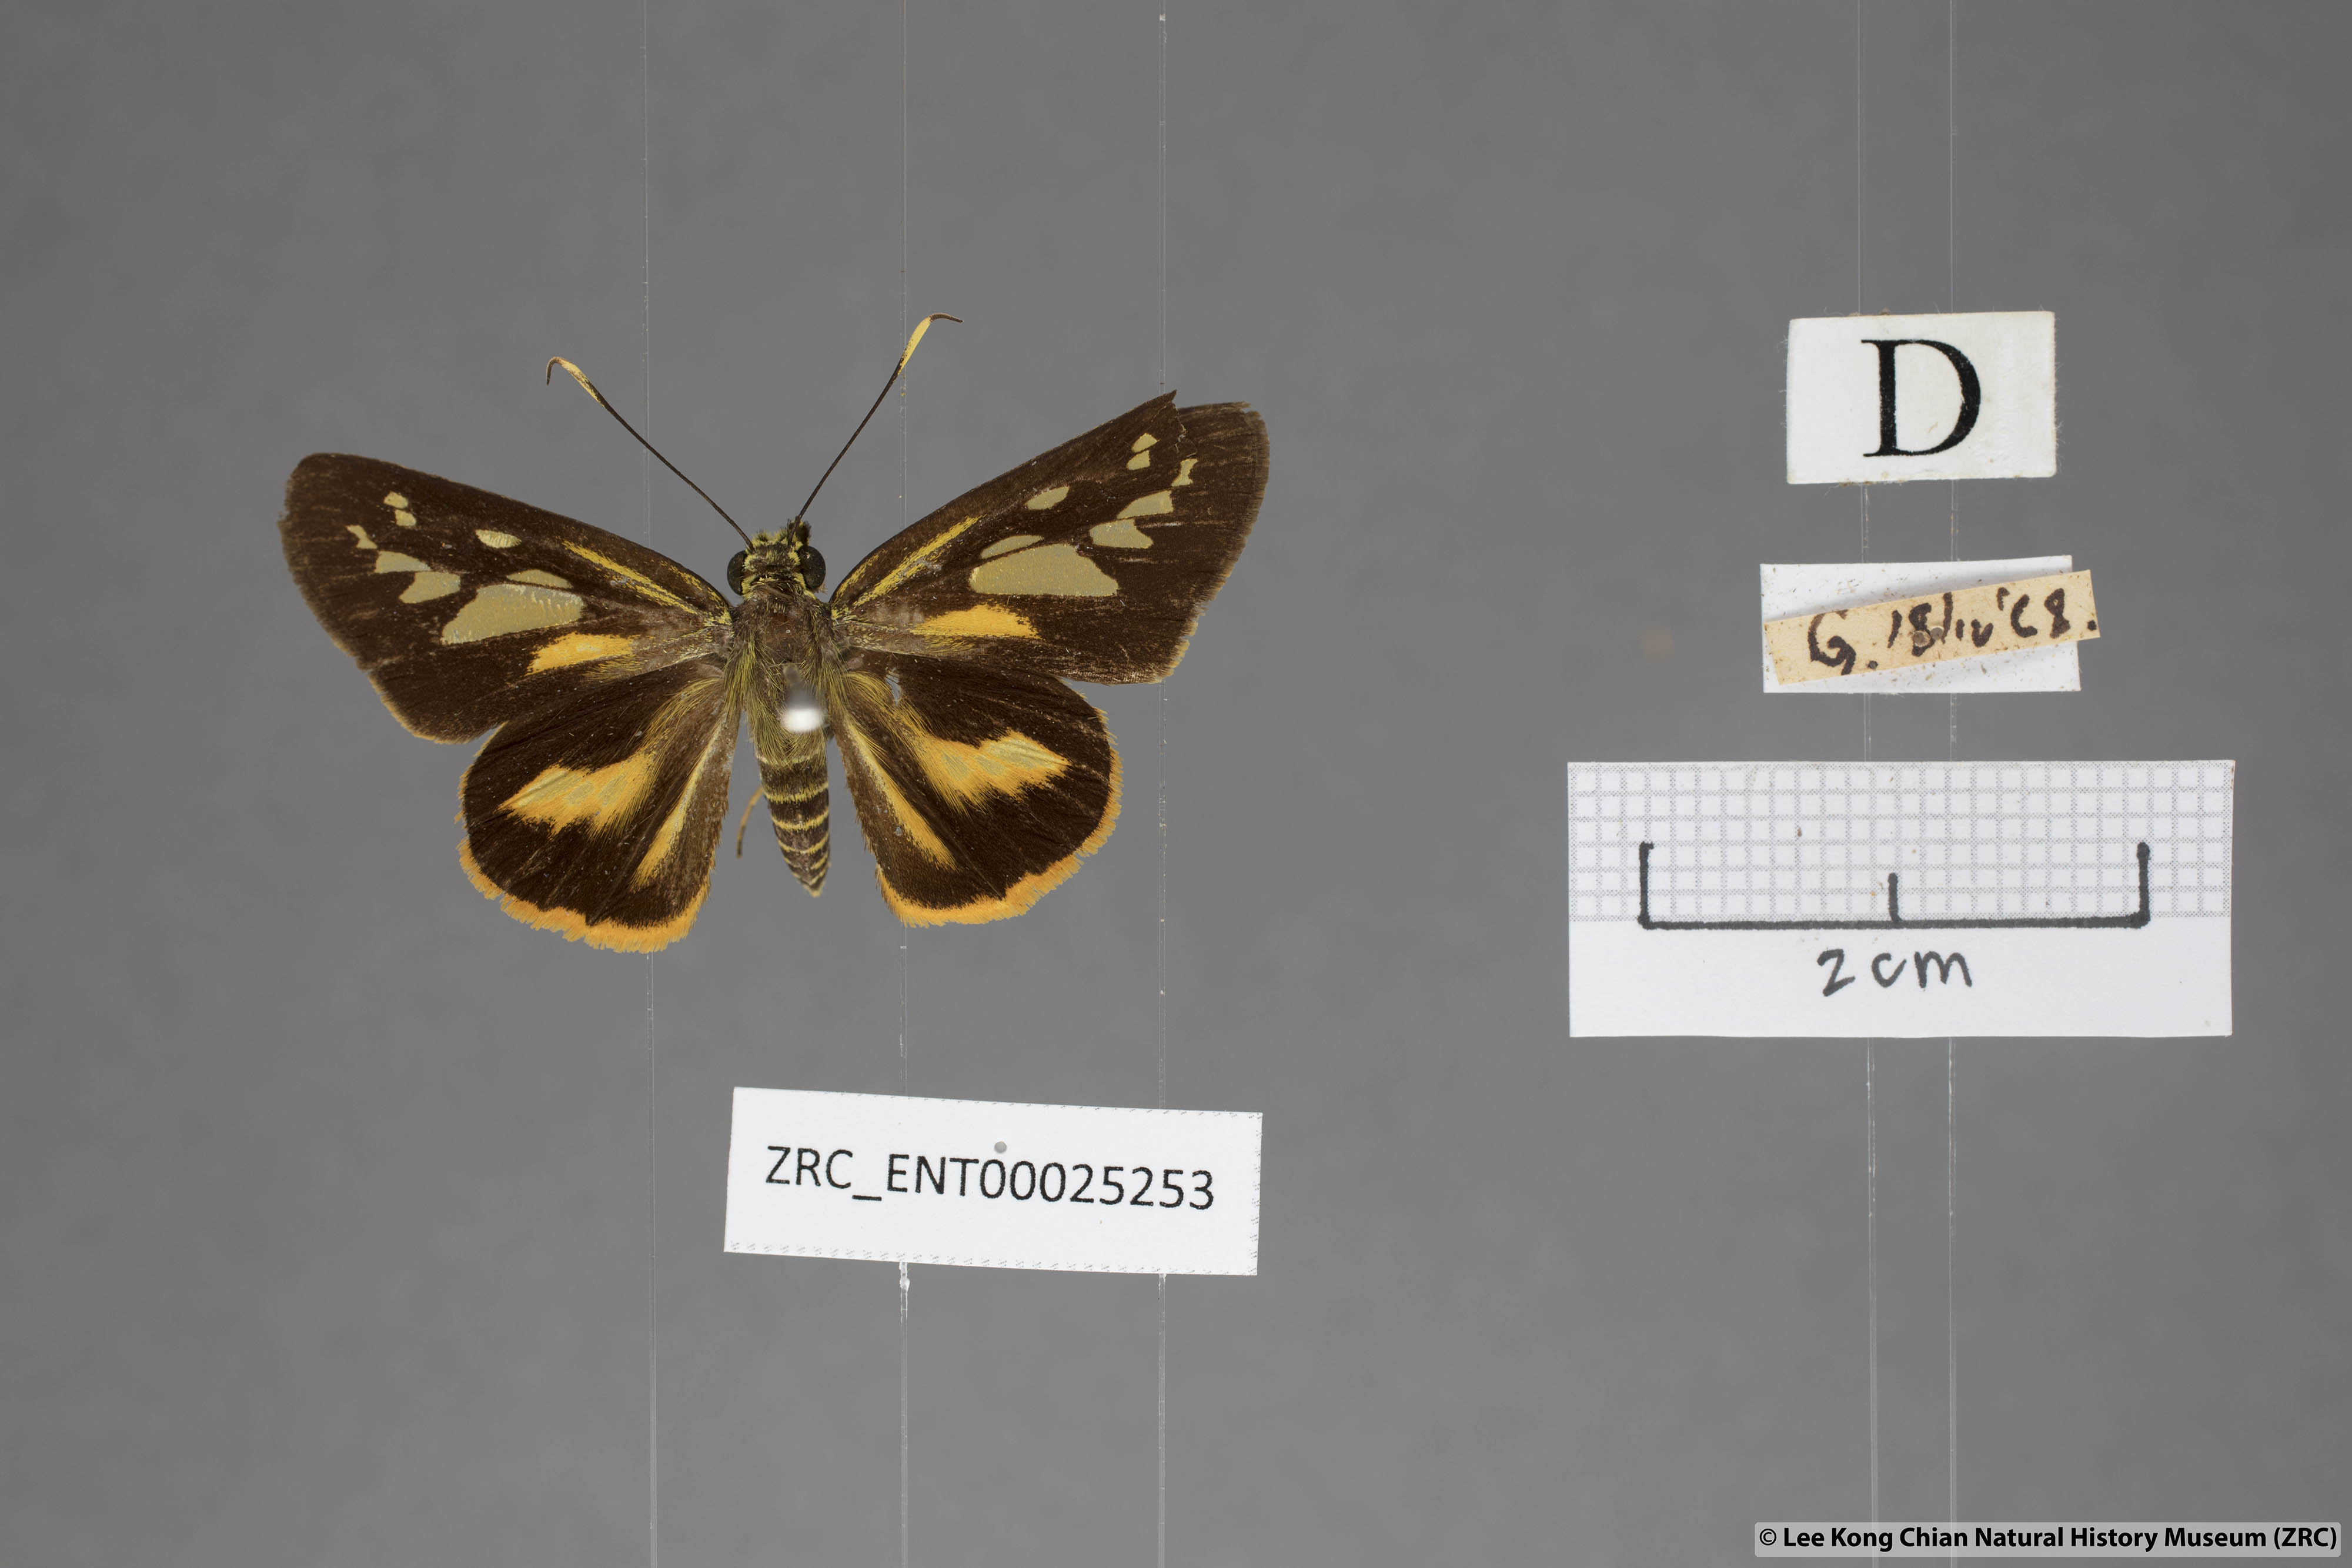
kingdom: Animalia
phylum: Arthropoda
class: Insecta
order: Lepidoptera
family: Hesperiidae
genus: Pyroneura
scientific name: Pyroneura latoia
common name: Yellow vein lancer
